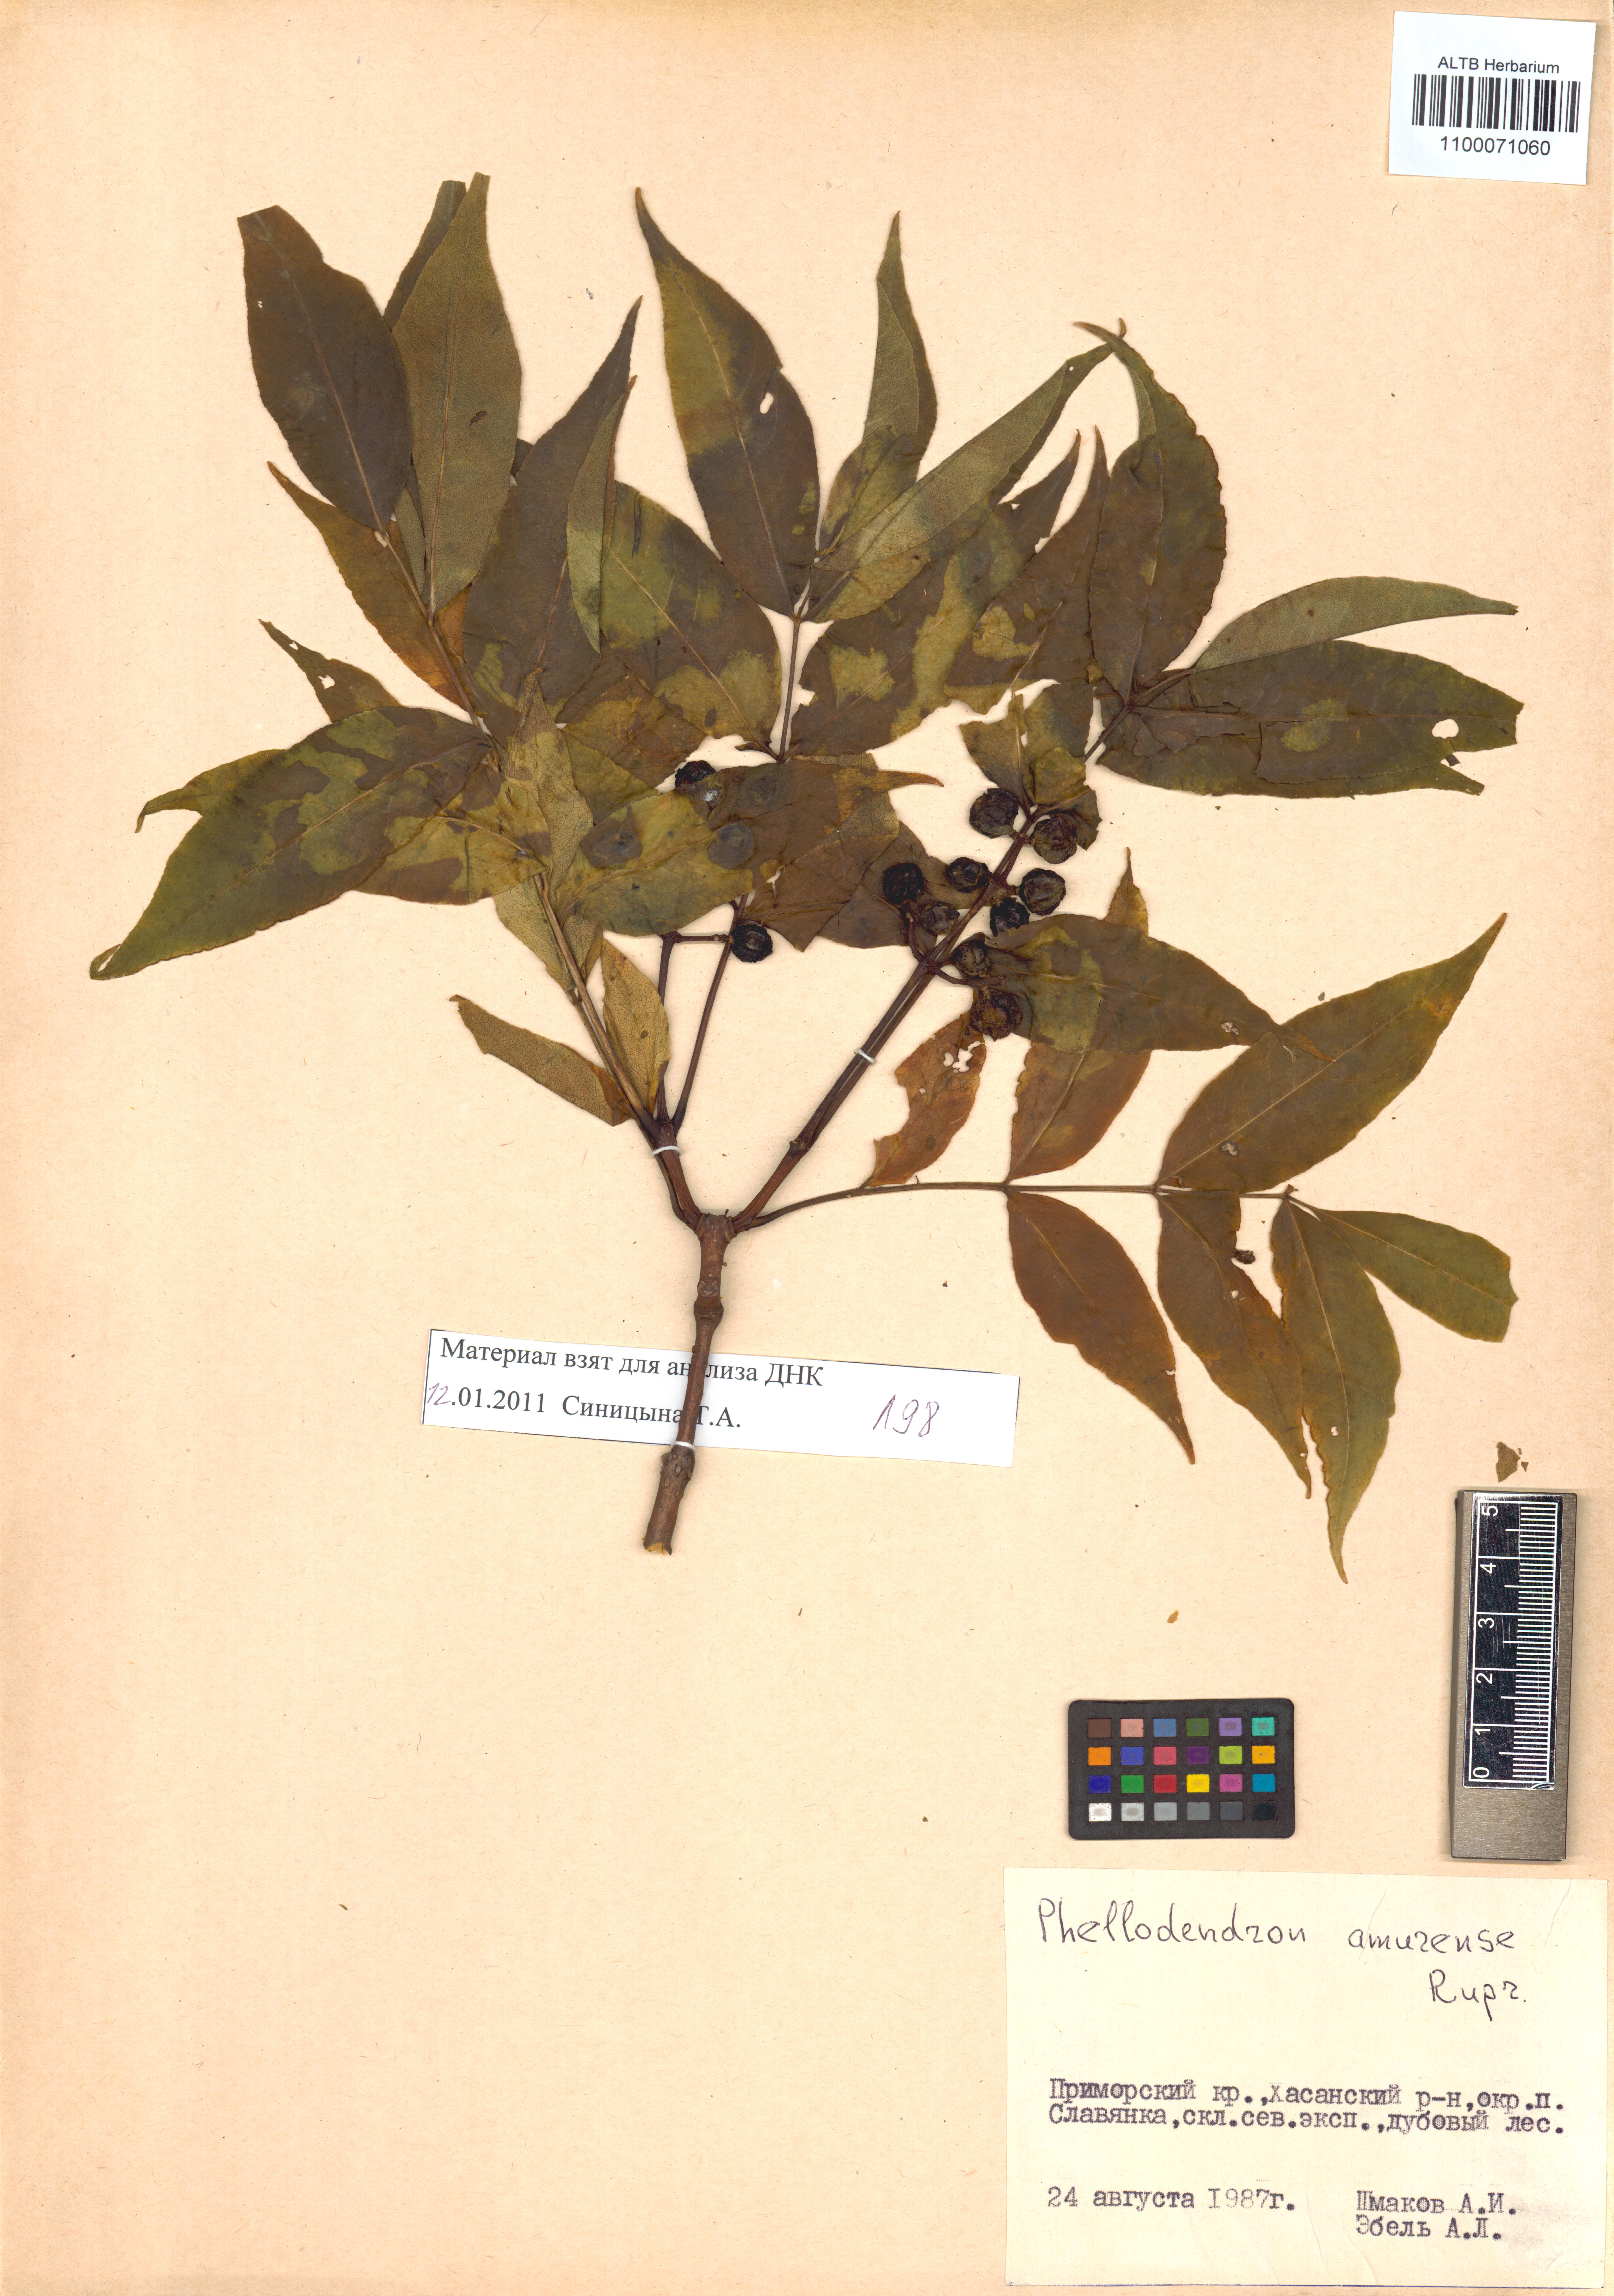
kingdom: Plantae
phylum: Tracheophyta
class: Magnoliopsida
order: Sapindales
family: Rutaceae
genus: Phellodendron
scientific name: Phellodendron amurense
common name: Amur corktree
